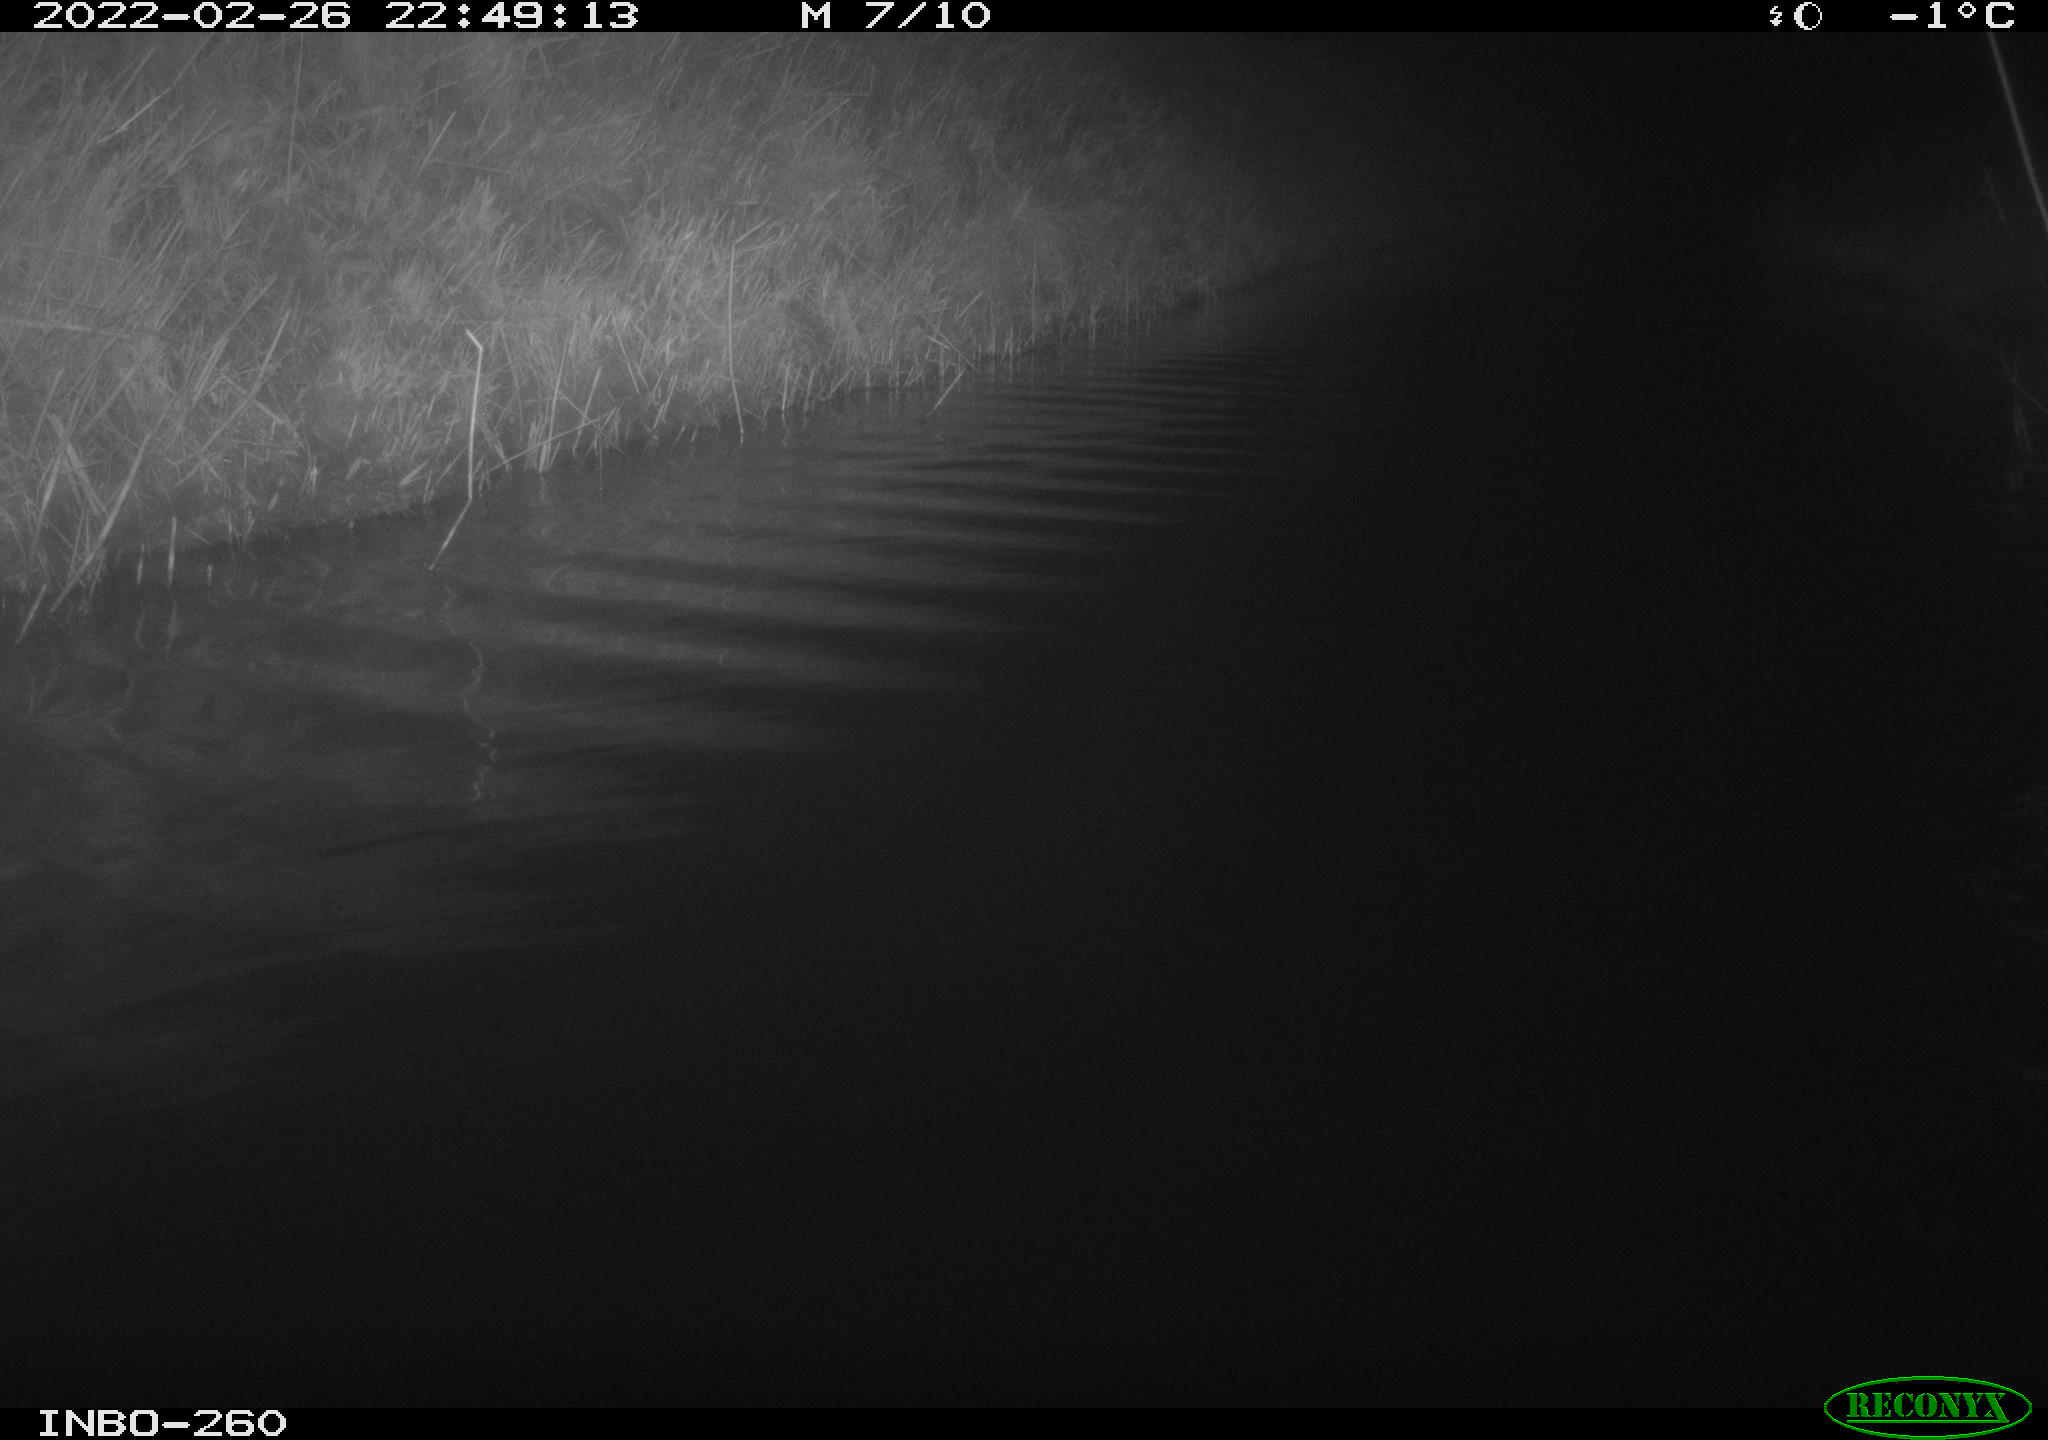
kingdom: Animalia
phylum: Chordata
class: Mammalia
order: Rodentia
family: Cricetidae
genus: Ondatra
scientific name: Ondatra zibethicus
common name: Muskrat
